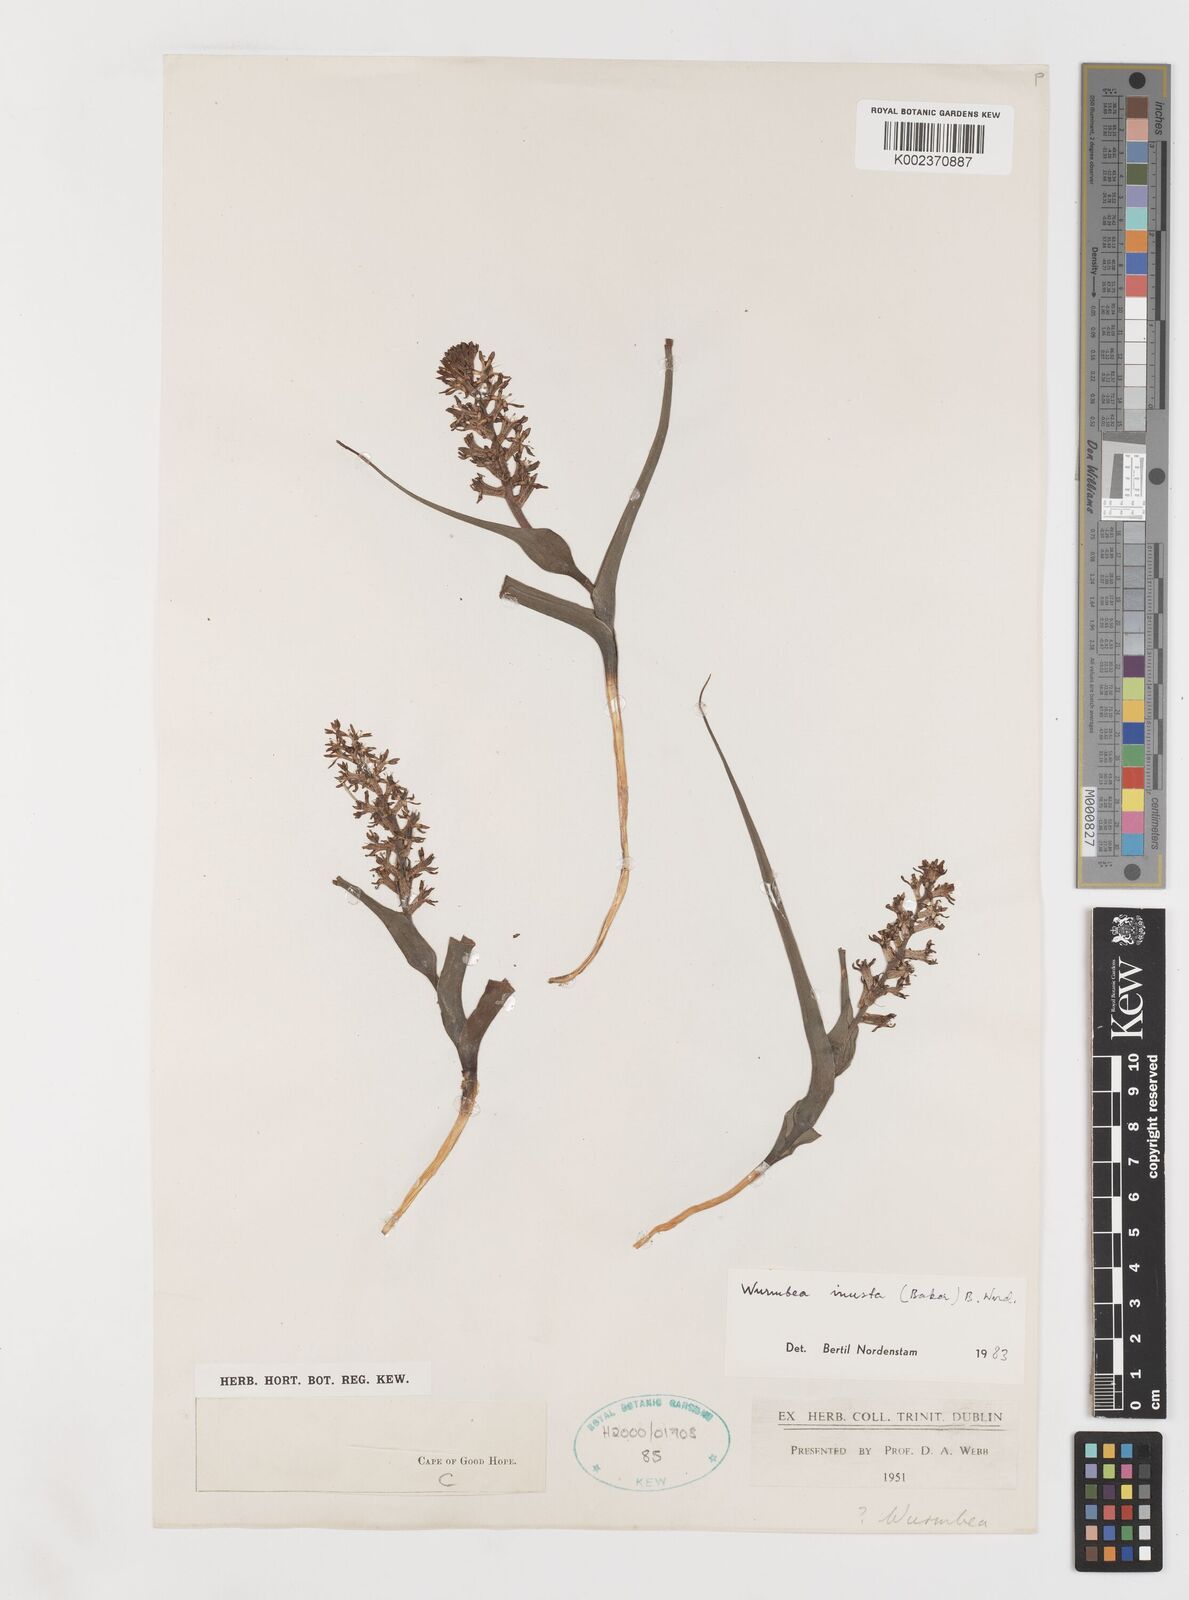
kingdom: Plantae
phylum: Tracheophyta
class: Liliopsida
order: Liliales
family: Colchicaceae
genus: Wurmbea
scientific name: Wurmbea inusta
